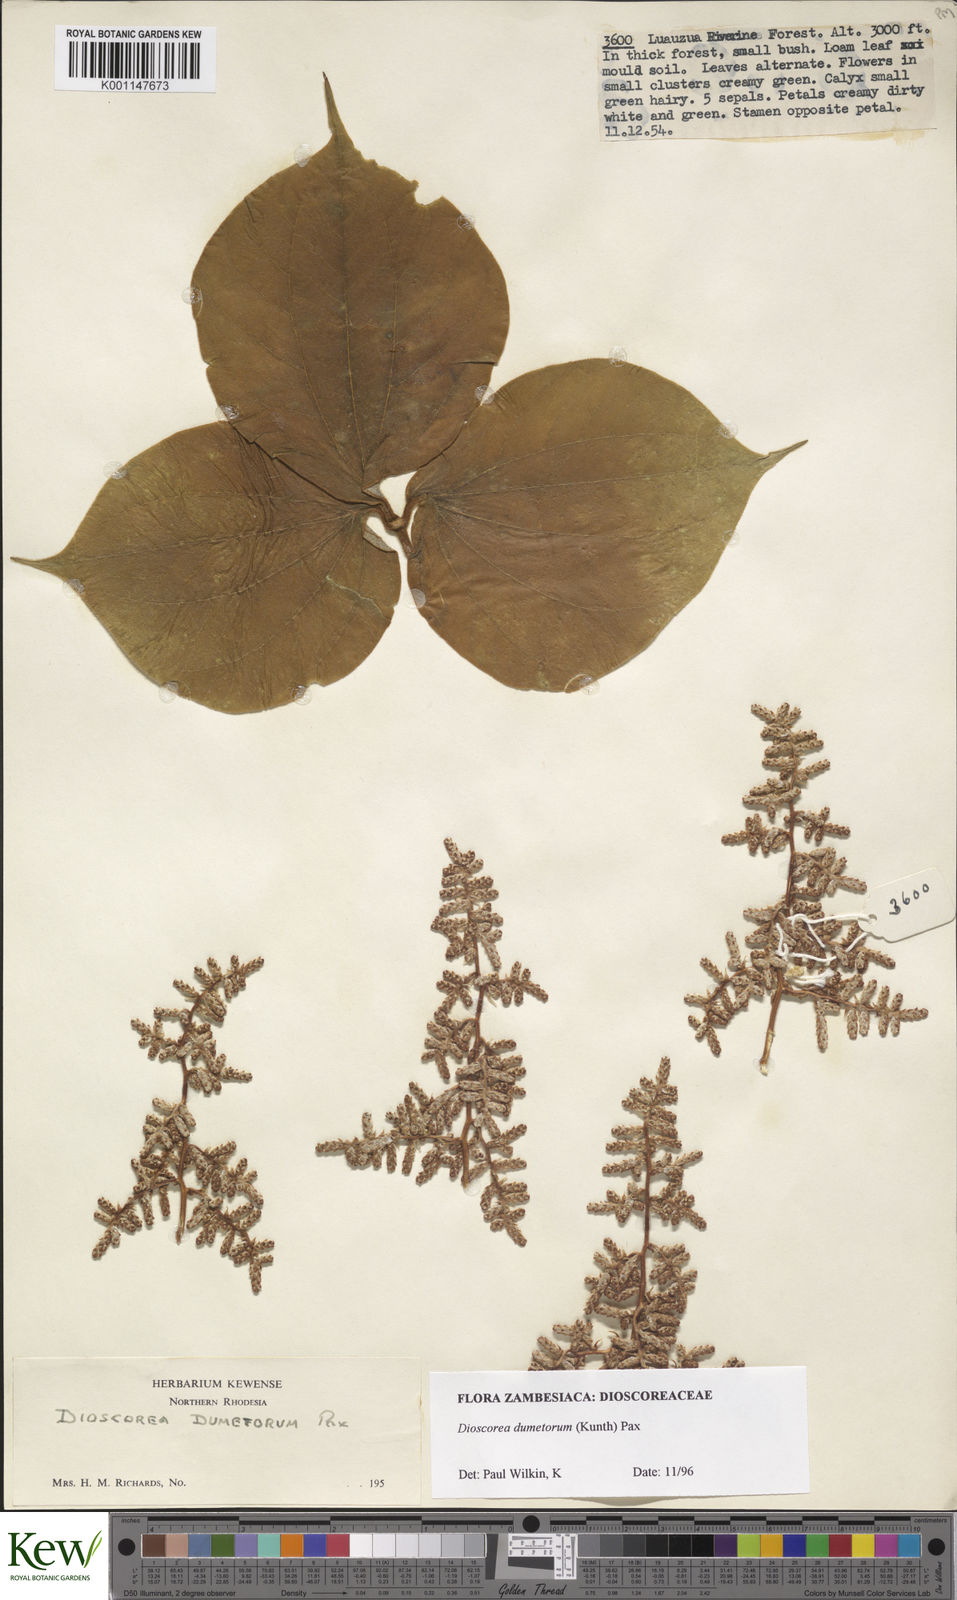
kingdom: Plantae
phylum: Tracheophyta
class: Liliopsida
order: Dioscoreales
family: Dioscoreaceae
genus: Dioscorea
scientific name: Dioscorea dumetorum
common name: African bitter yam
